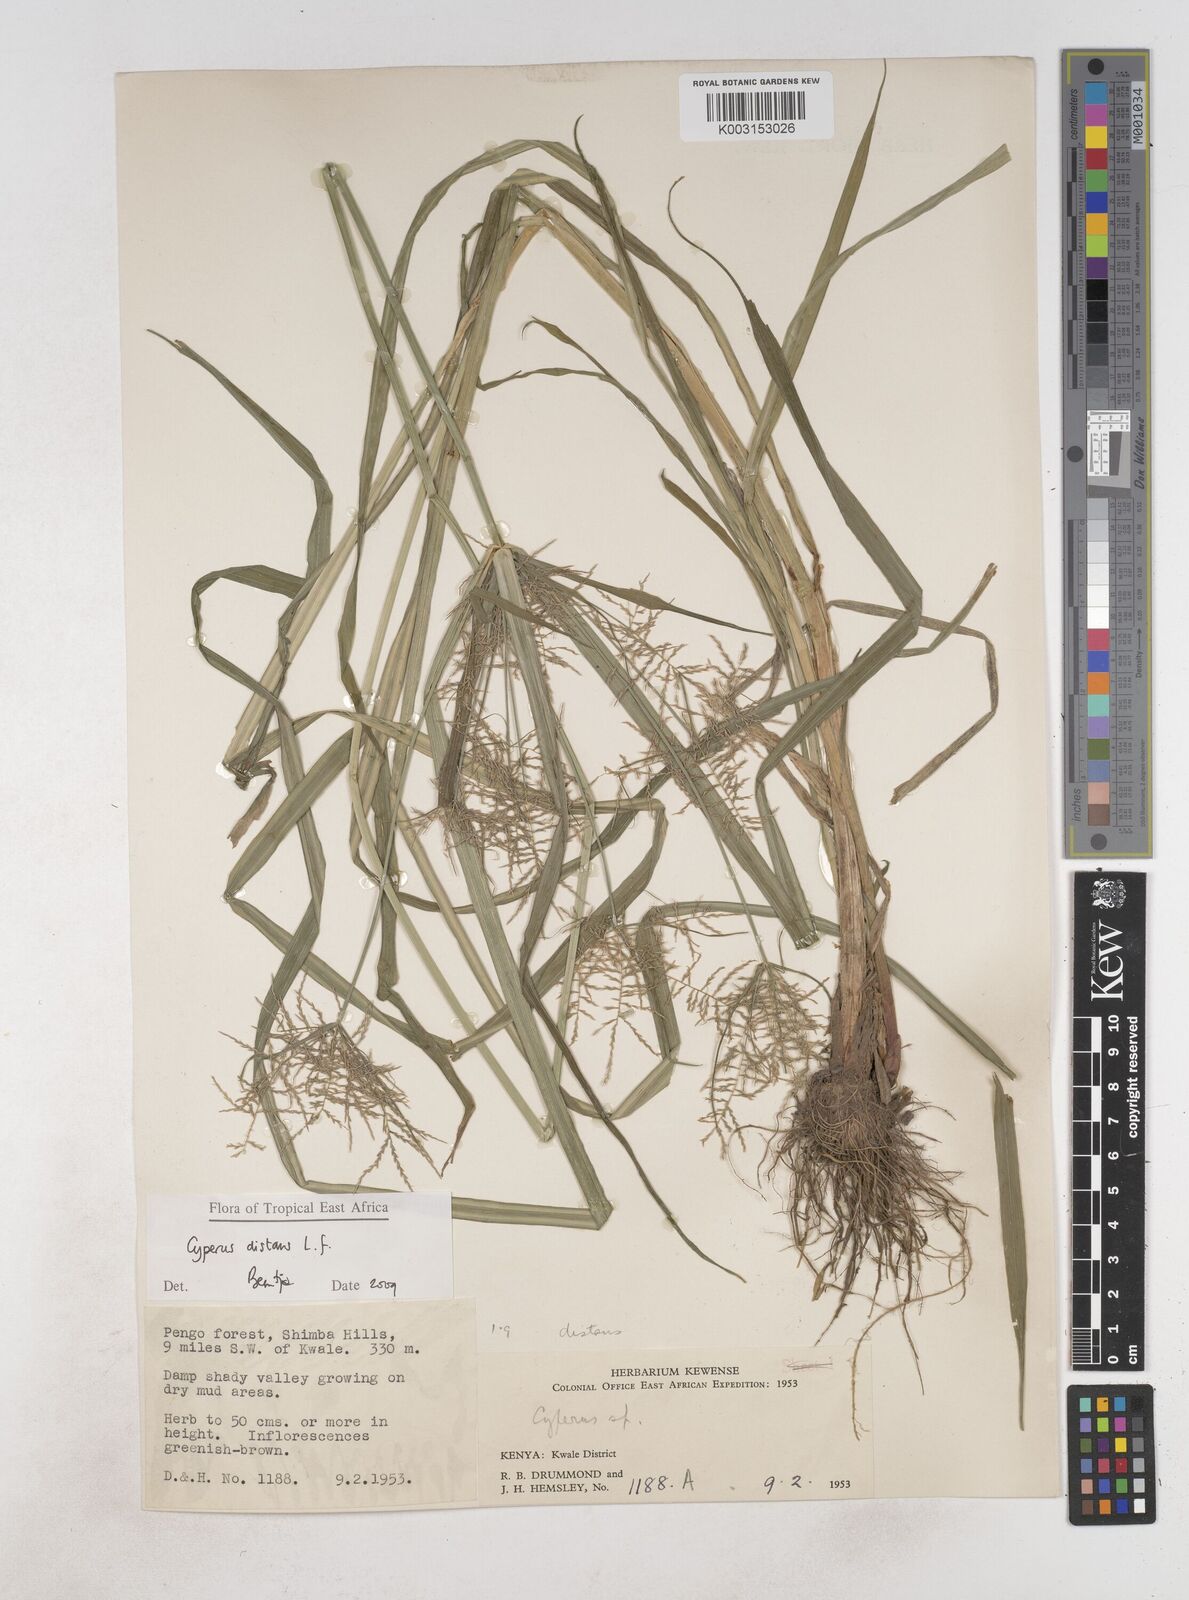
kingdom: Plantae
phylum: Tracheophyta
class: Liliopsida
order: Poales
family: Cyperaceae
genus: Cyperus
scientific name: Cyperus distans
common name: Slender cyperus
